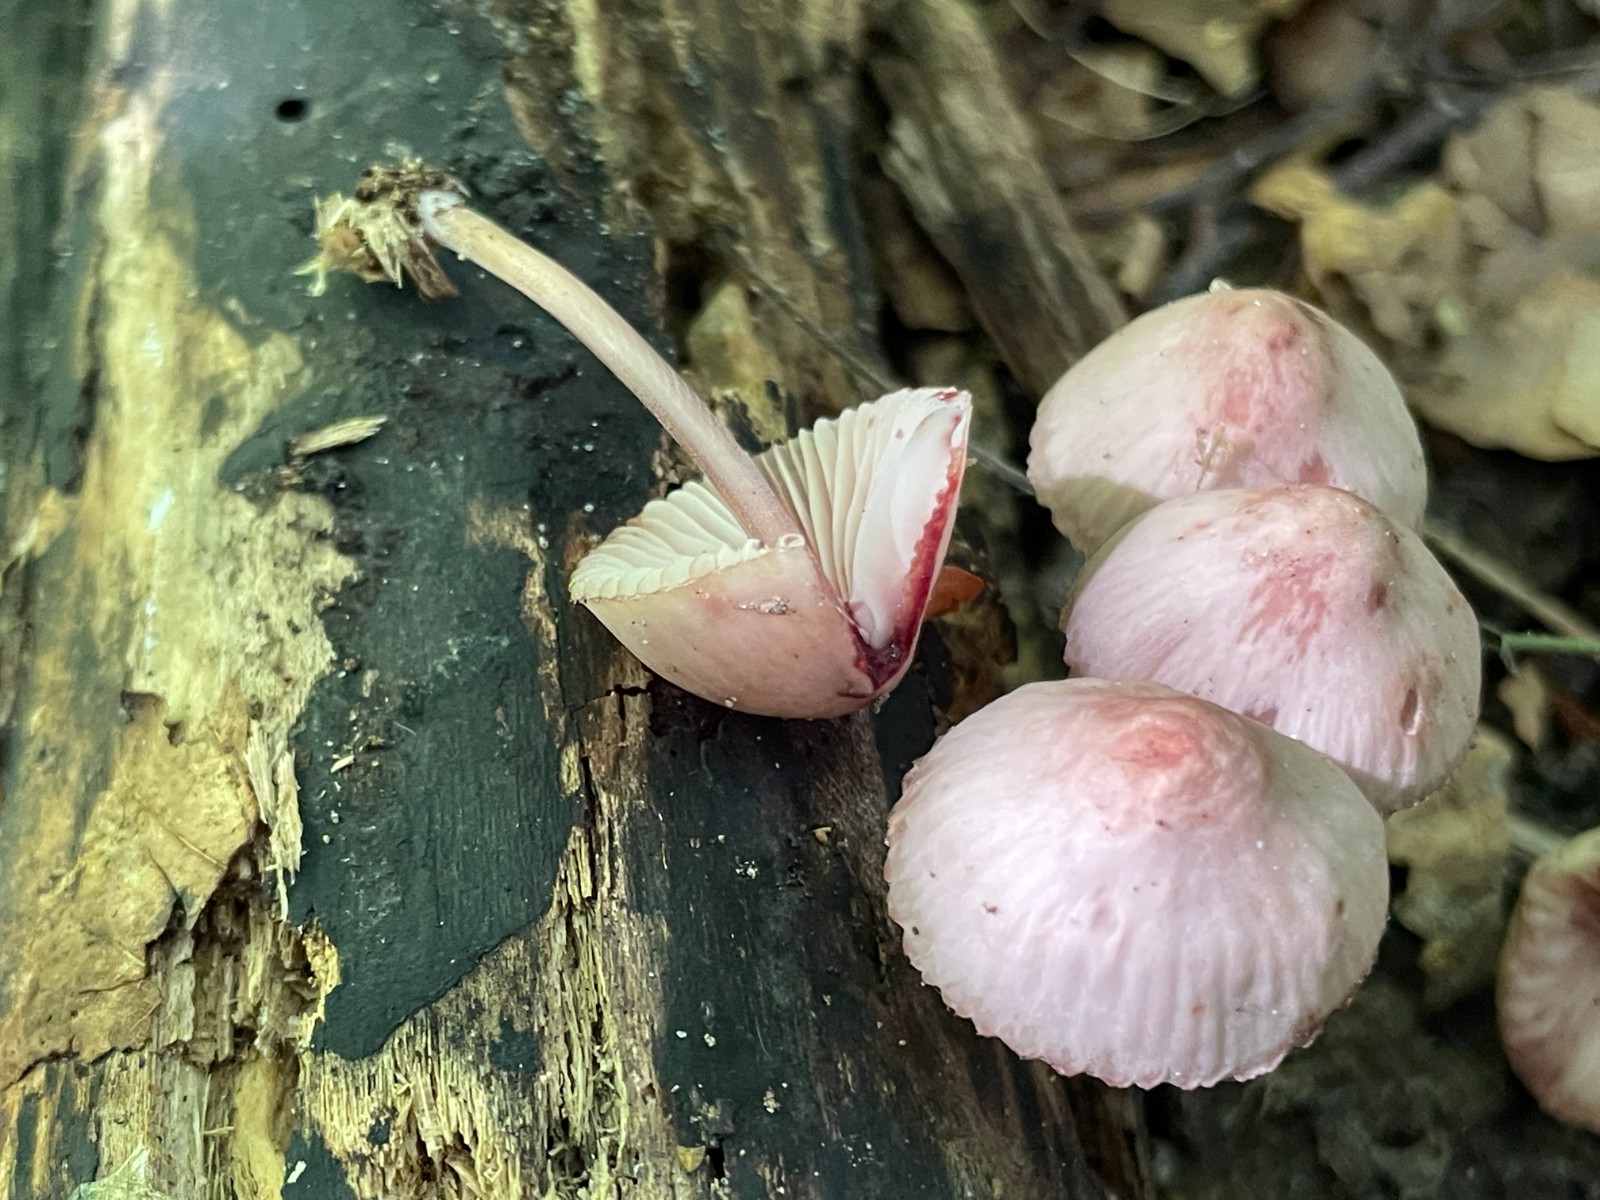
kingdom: Fungi
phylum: Basidiomycota
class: Agaricomycetes
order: Agaricales
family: Mycenaceae
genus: Mycena
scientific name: Mycena haematopus
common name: blødende huesvamp
